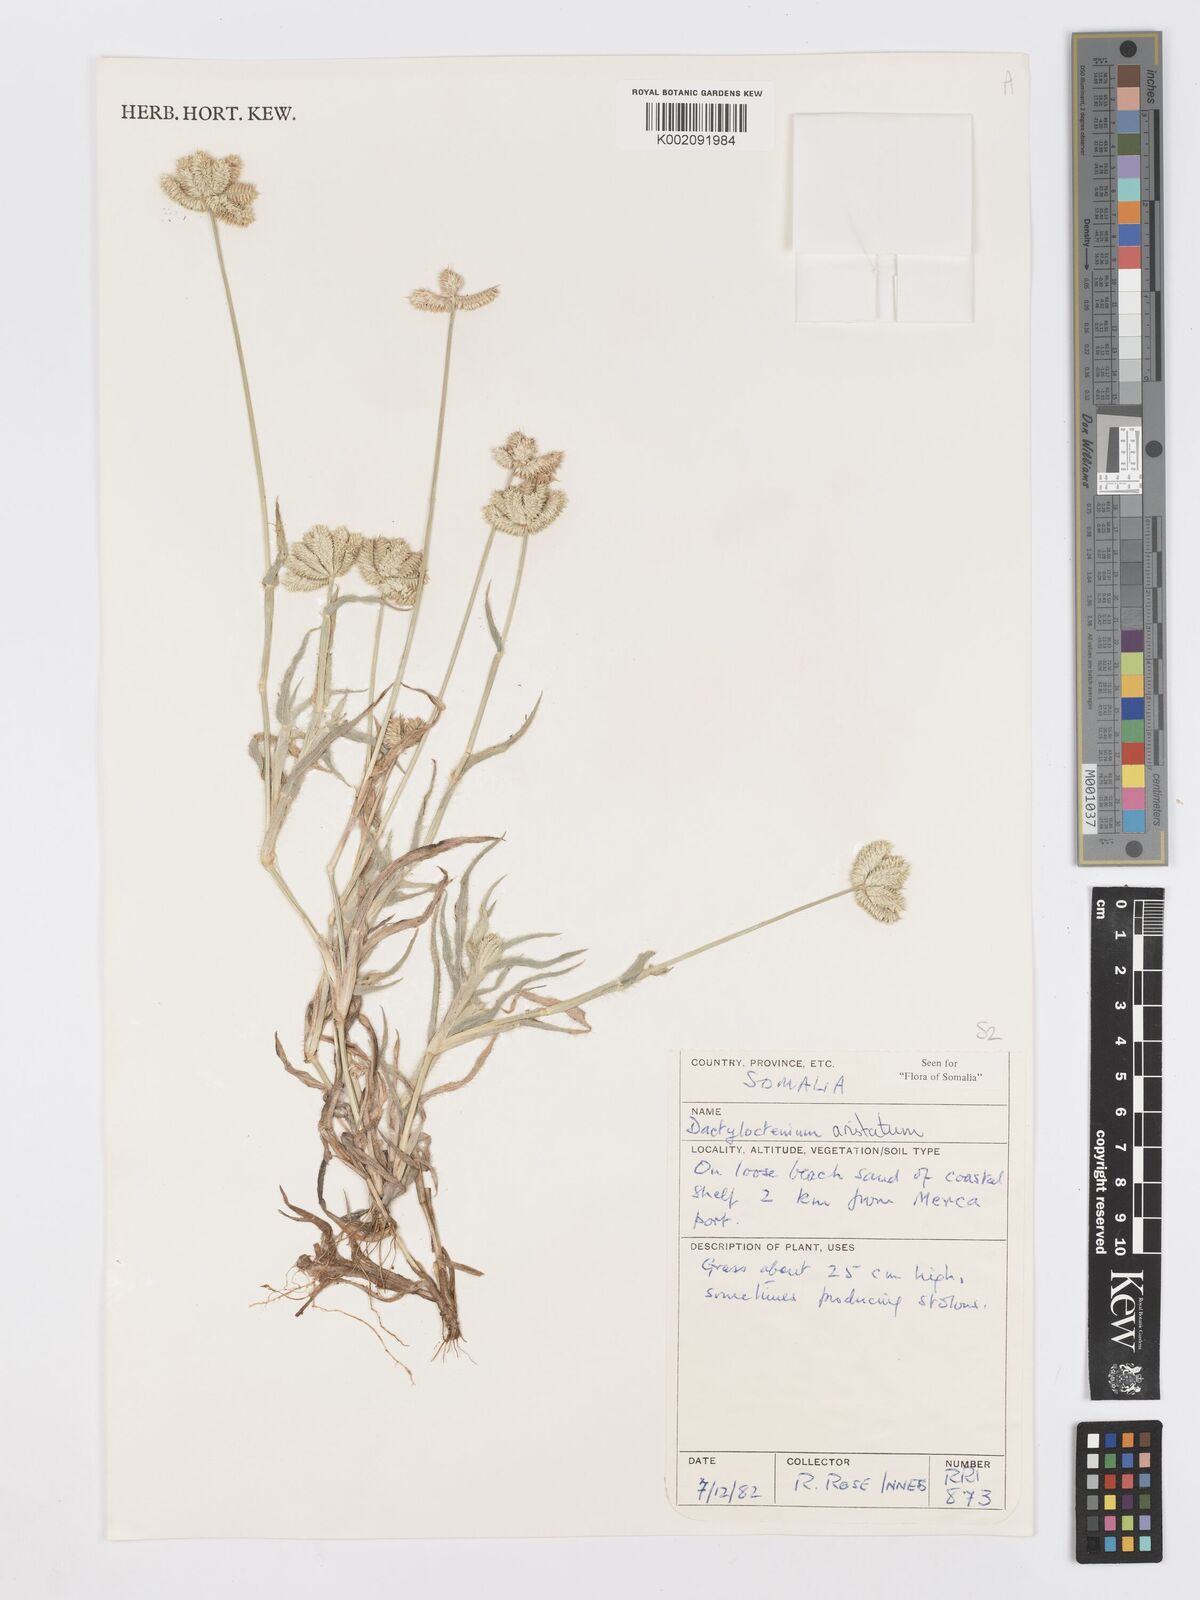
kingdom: Plantae
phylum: Tracheophyta
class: Liliopsida
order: Poales
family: Poaceae
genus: Dactyloctenium
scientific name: Dactyloctenium aristatum
